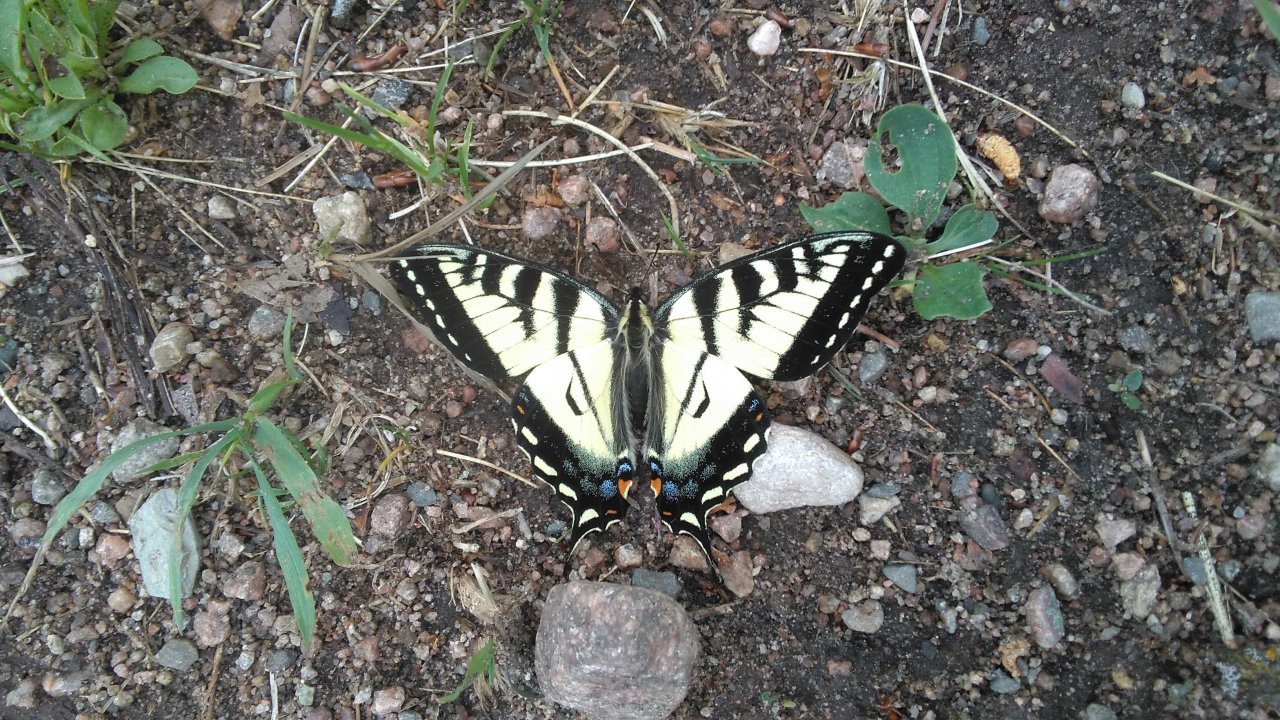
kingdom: Animalia
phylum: Arthropoda
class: Insecta
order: Lepidoptera
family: Papilionidae
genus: Pterourus
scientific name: Pterourus canadensis
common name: Canadian Tiger Swallowtail
